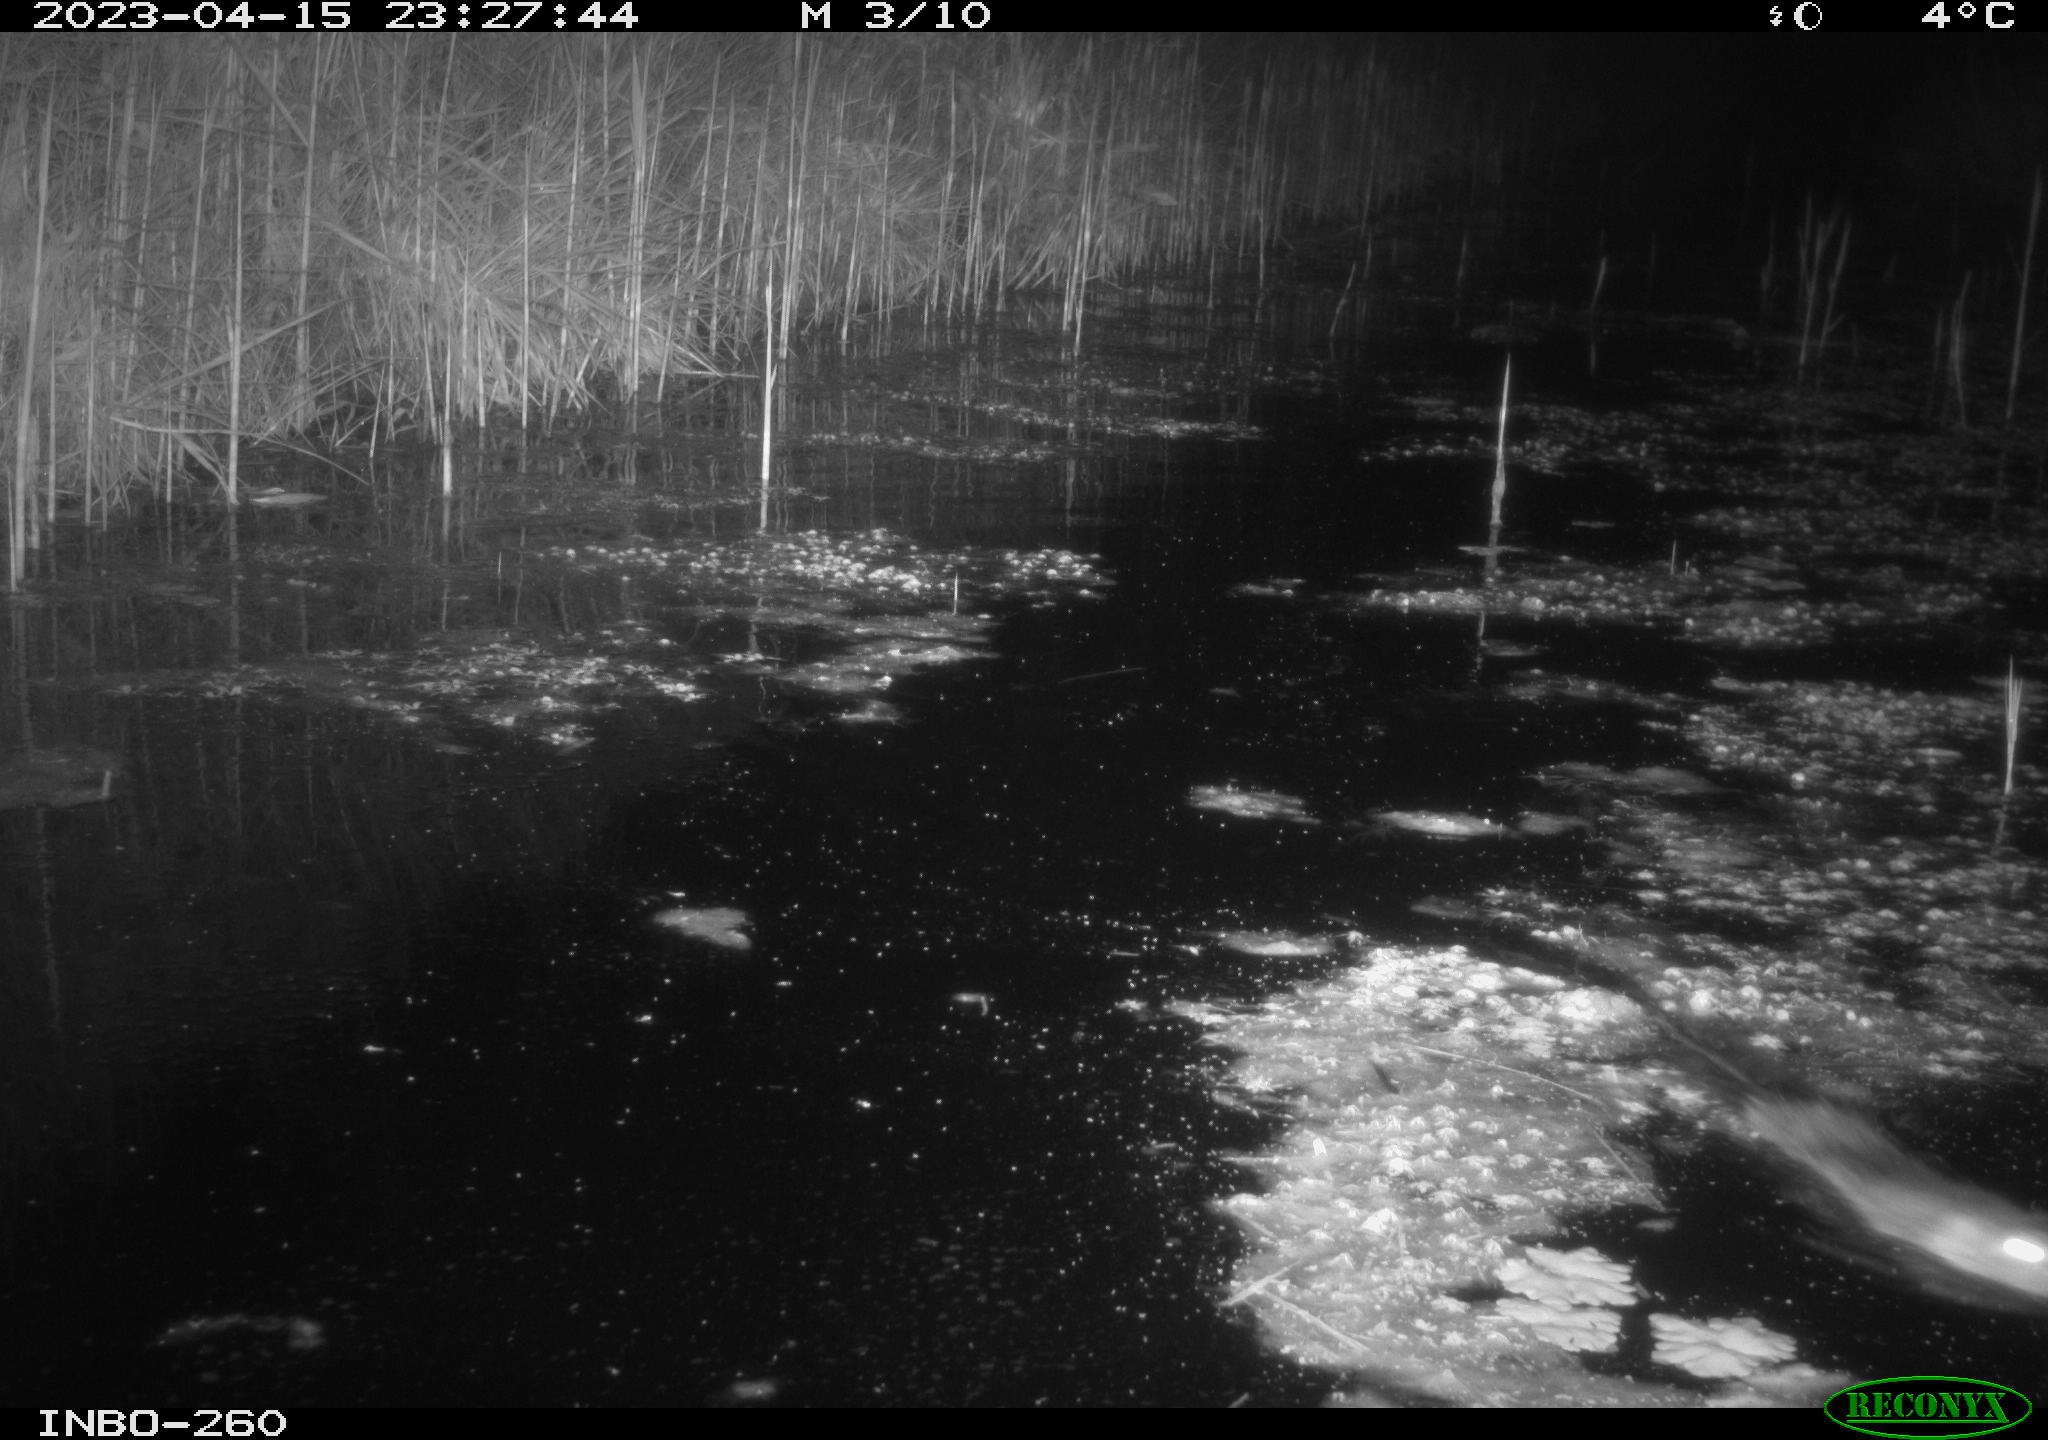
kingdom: Animalia
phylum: Chordata
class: Mammalia
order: Rodentia
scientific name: Rodentia
